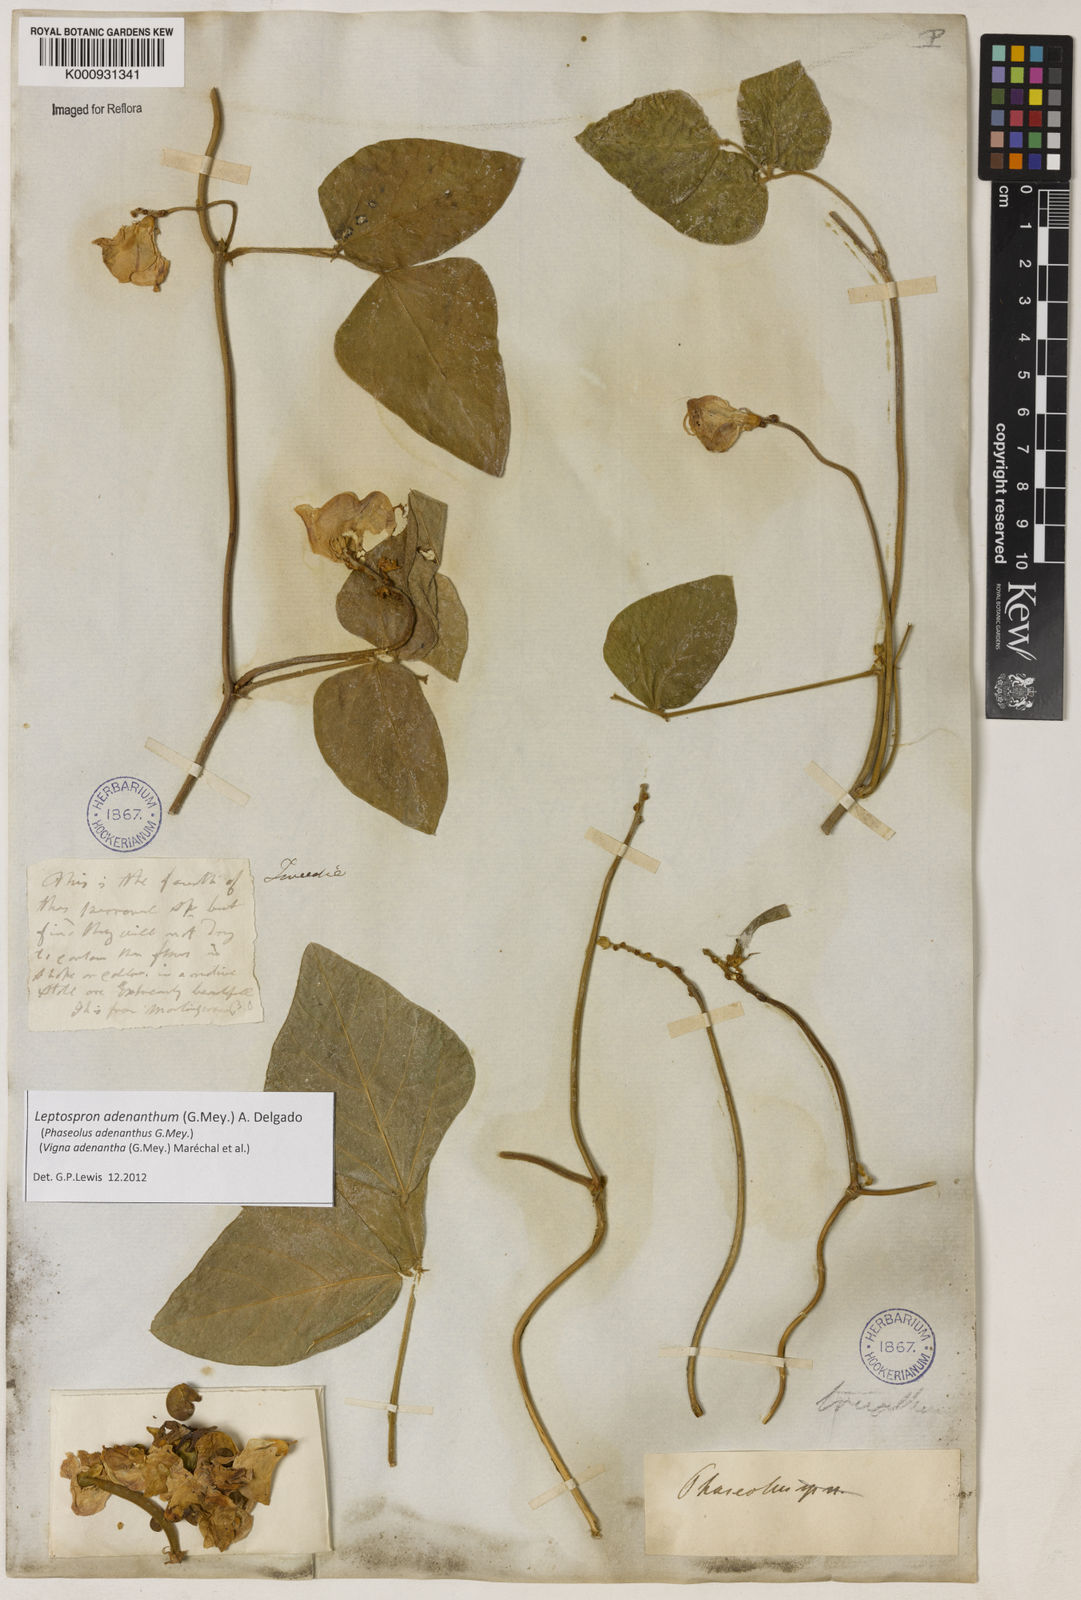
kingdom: Plantae
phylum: Tracheophyta
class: Magnoliopsida
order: Fabales
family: Fabaceae
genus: Leptospron
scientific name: Leptospron adenanthum
